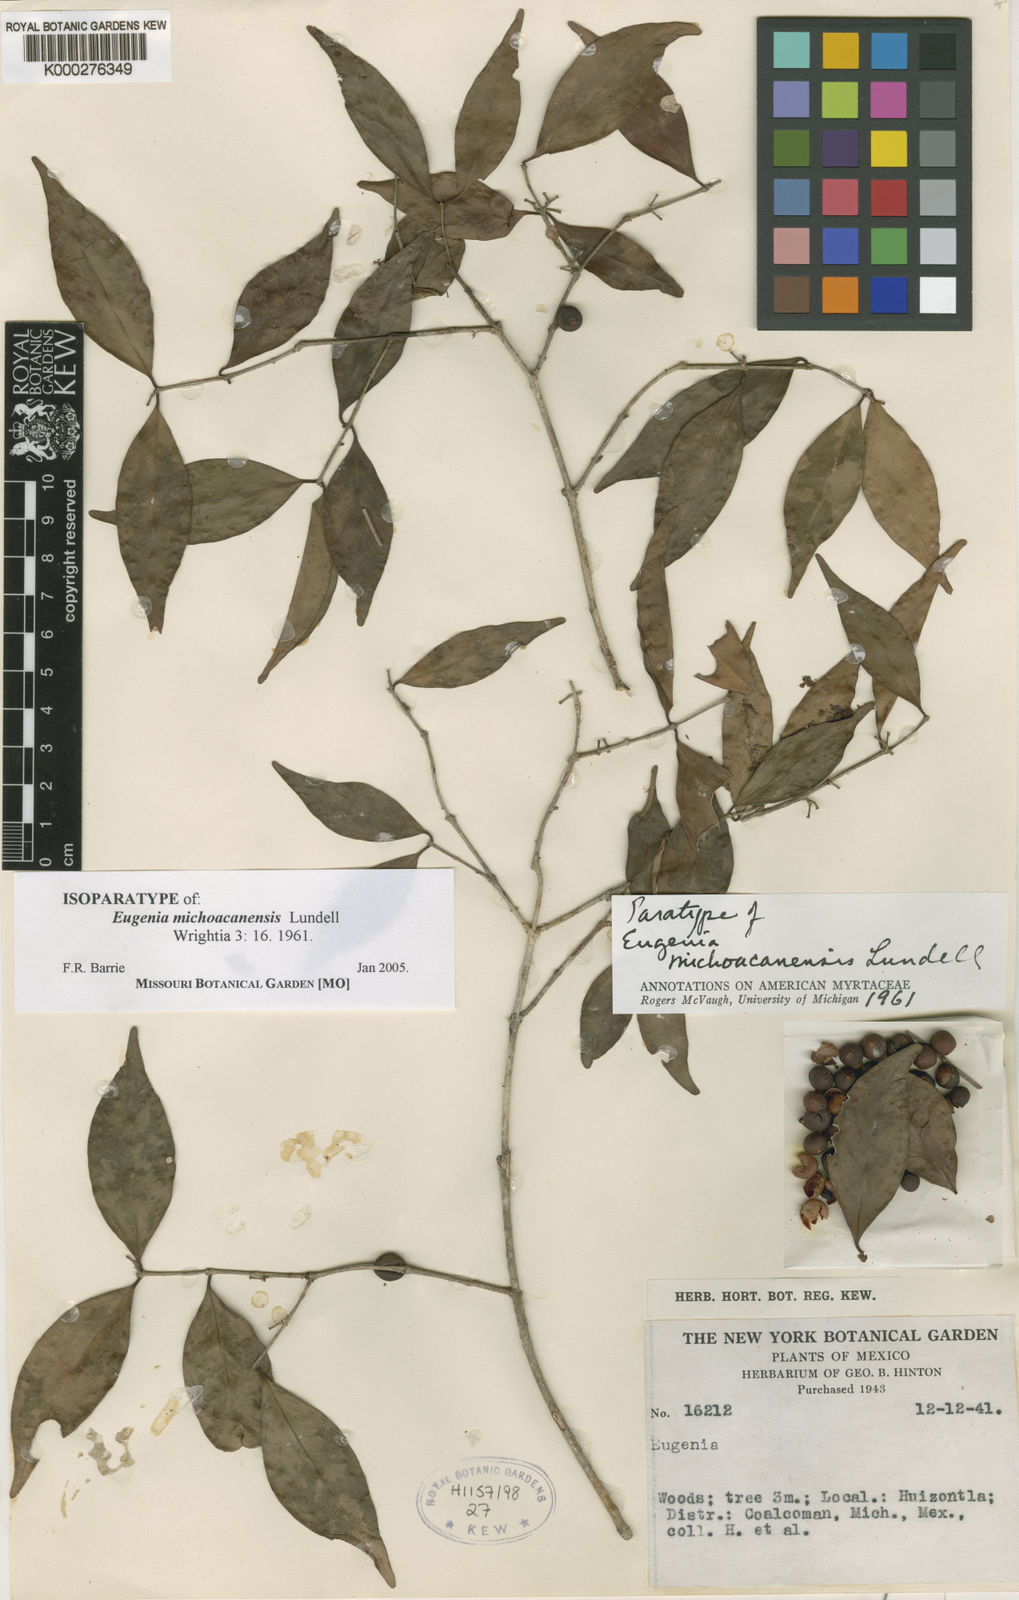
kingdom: Plantae
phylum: Tracheophyta
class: Magnoliopsida
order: Myrtales
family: Myrtaceae
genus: Eugenia
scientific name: Eugenia michoacanensis
